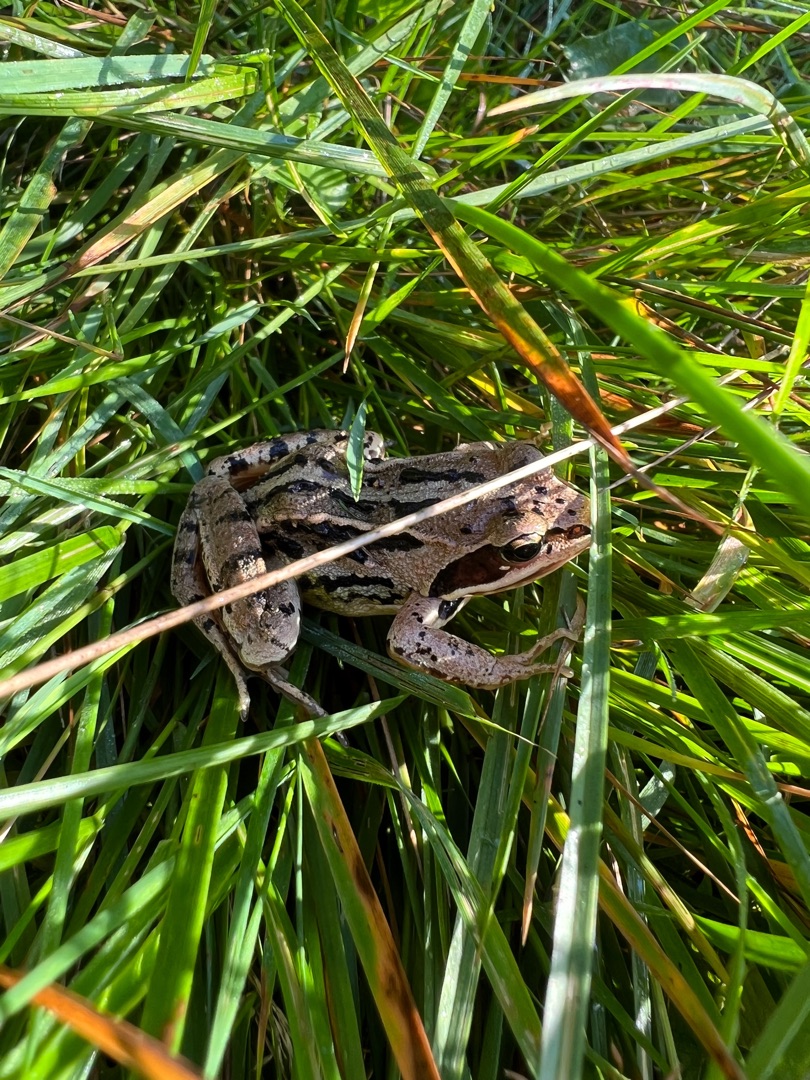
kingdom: Animalia
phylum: Chordata
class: Amphibia
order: Anura
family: Ranidae
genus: Rana
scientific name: Rana arvalis
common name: Spidssnudet frø
